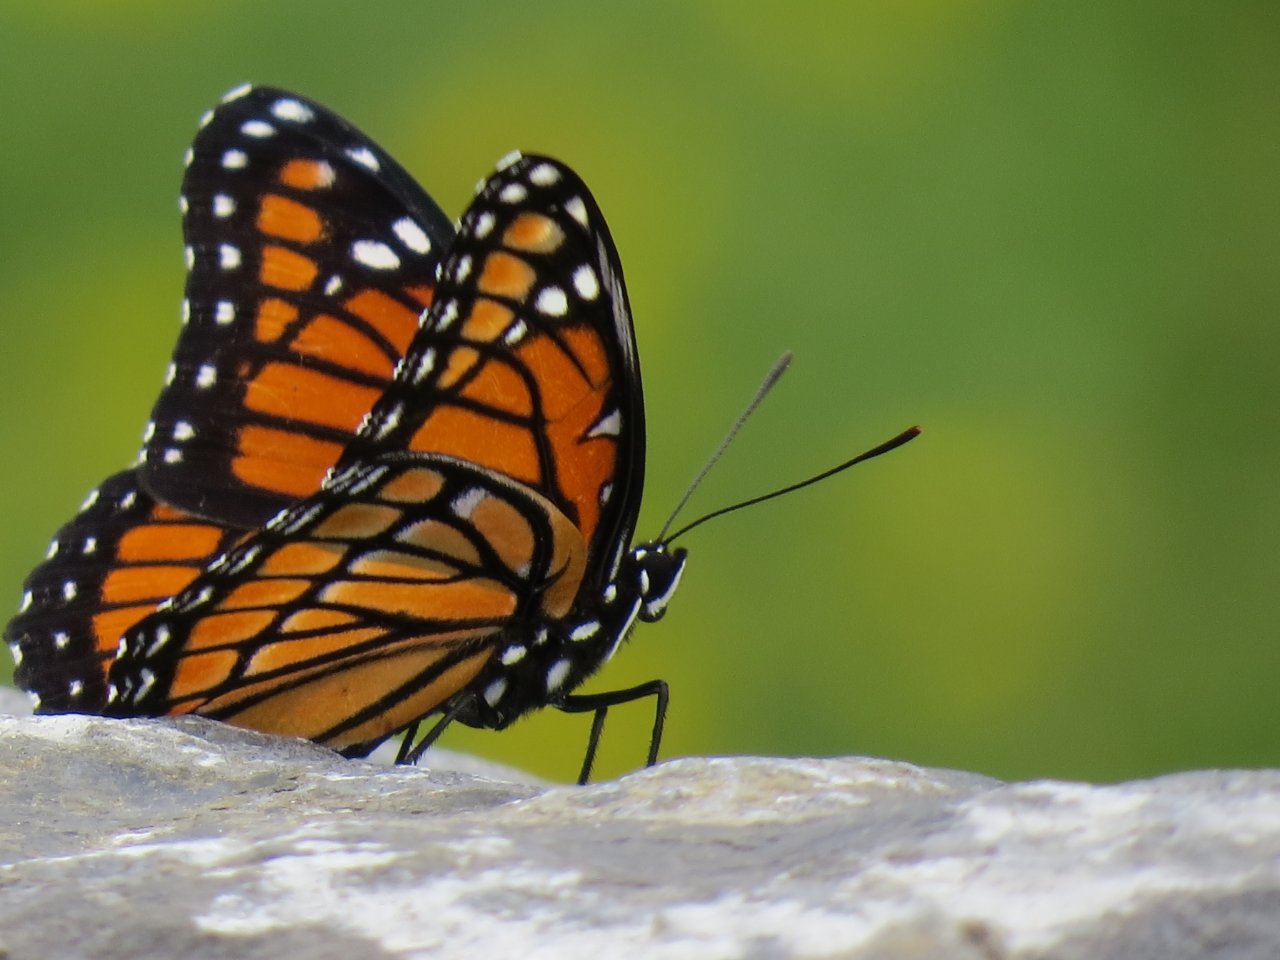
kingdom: Animalia
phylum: Arthropoda
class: Insecta
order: Lepidoptera
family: Nymphalidae
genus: Limenitis
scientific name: Limenitis archippus
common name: Viceroy
